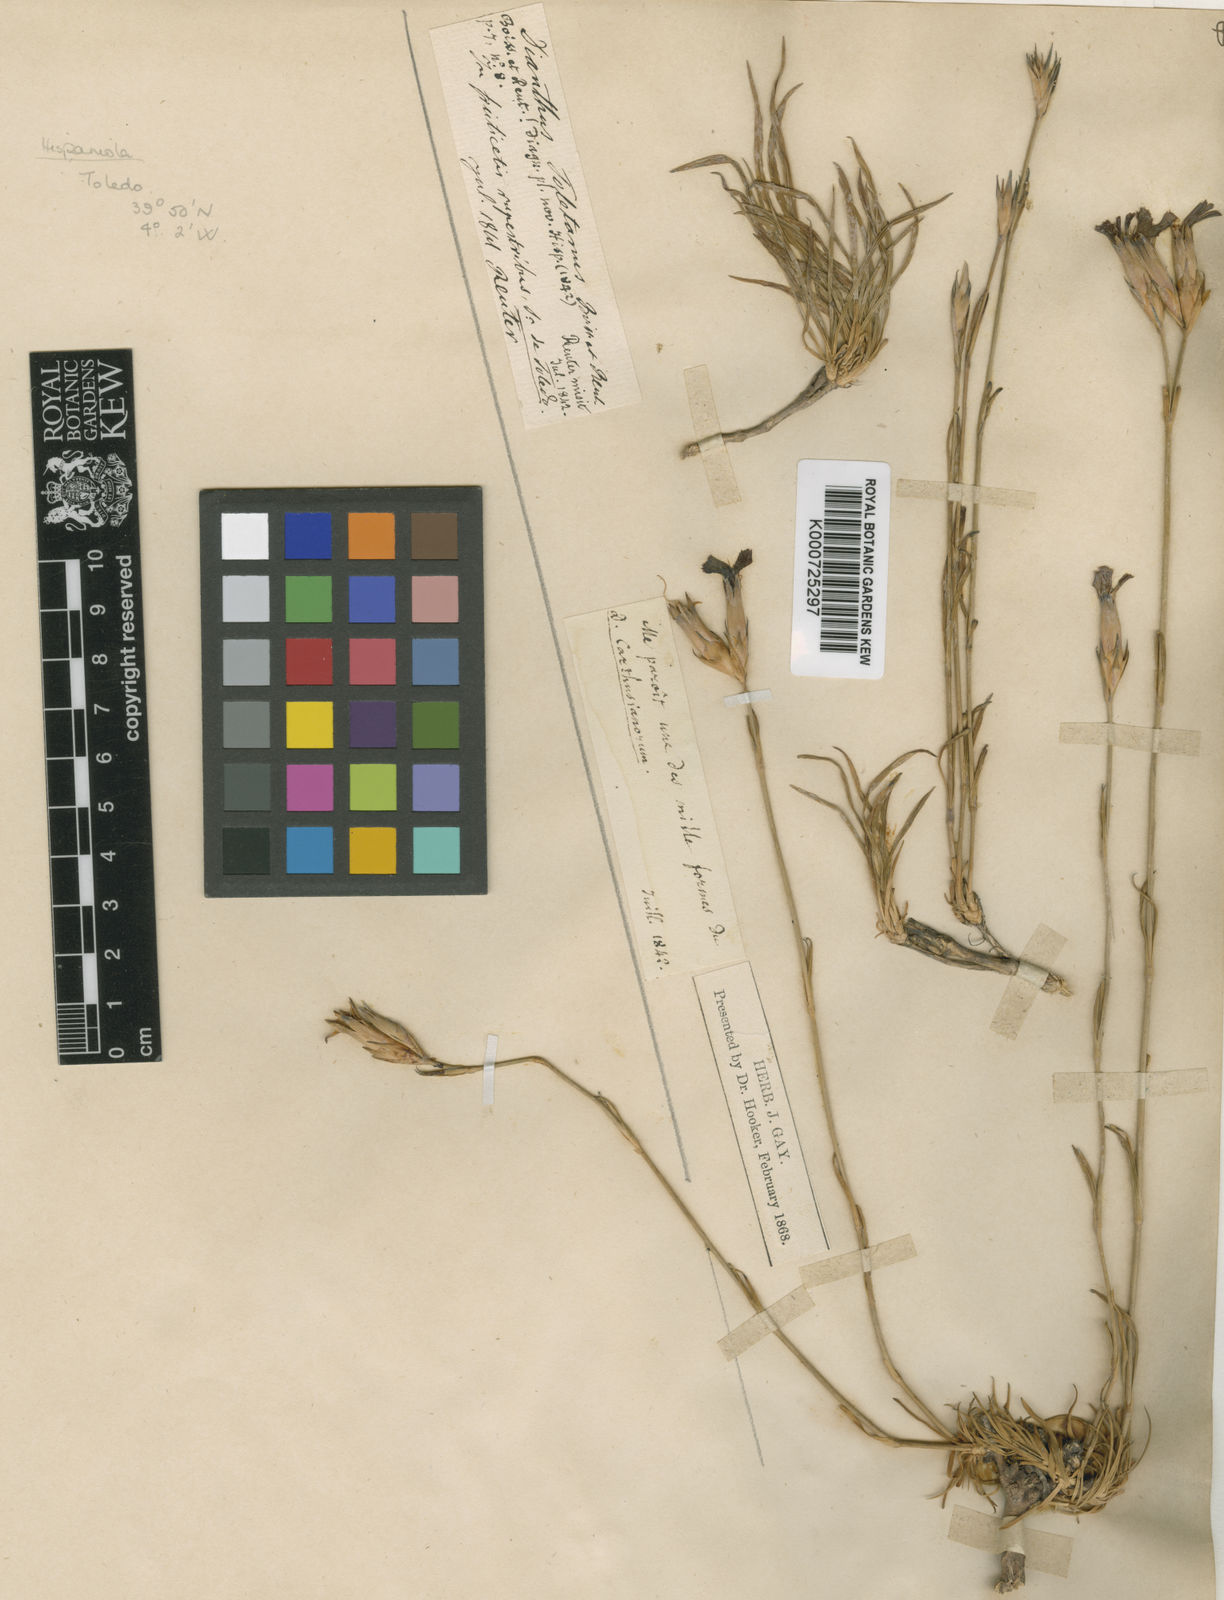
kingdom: Plantae
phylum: Tracheophyta
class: Magnoliopsida
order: Caryophyllales
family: Caryophyllaceae
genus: Dianthus
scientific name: Dianthus toletanus
